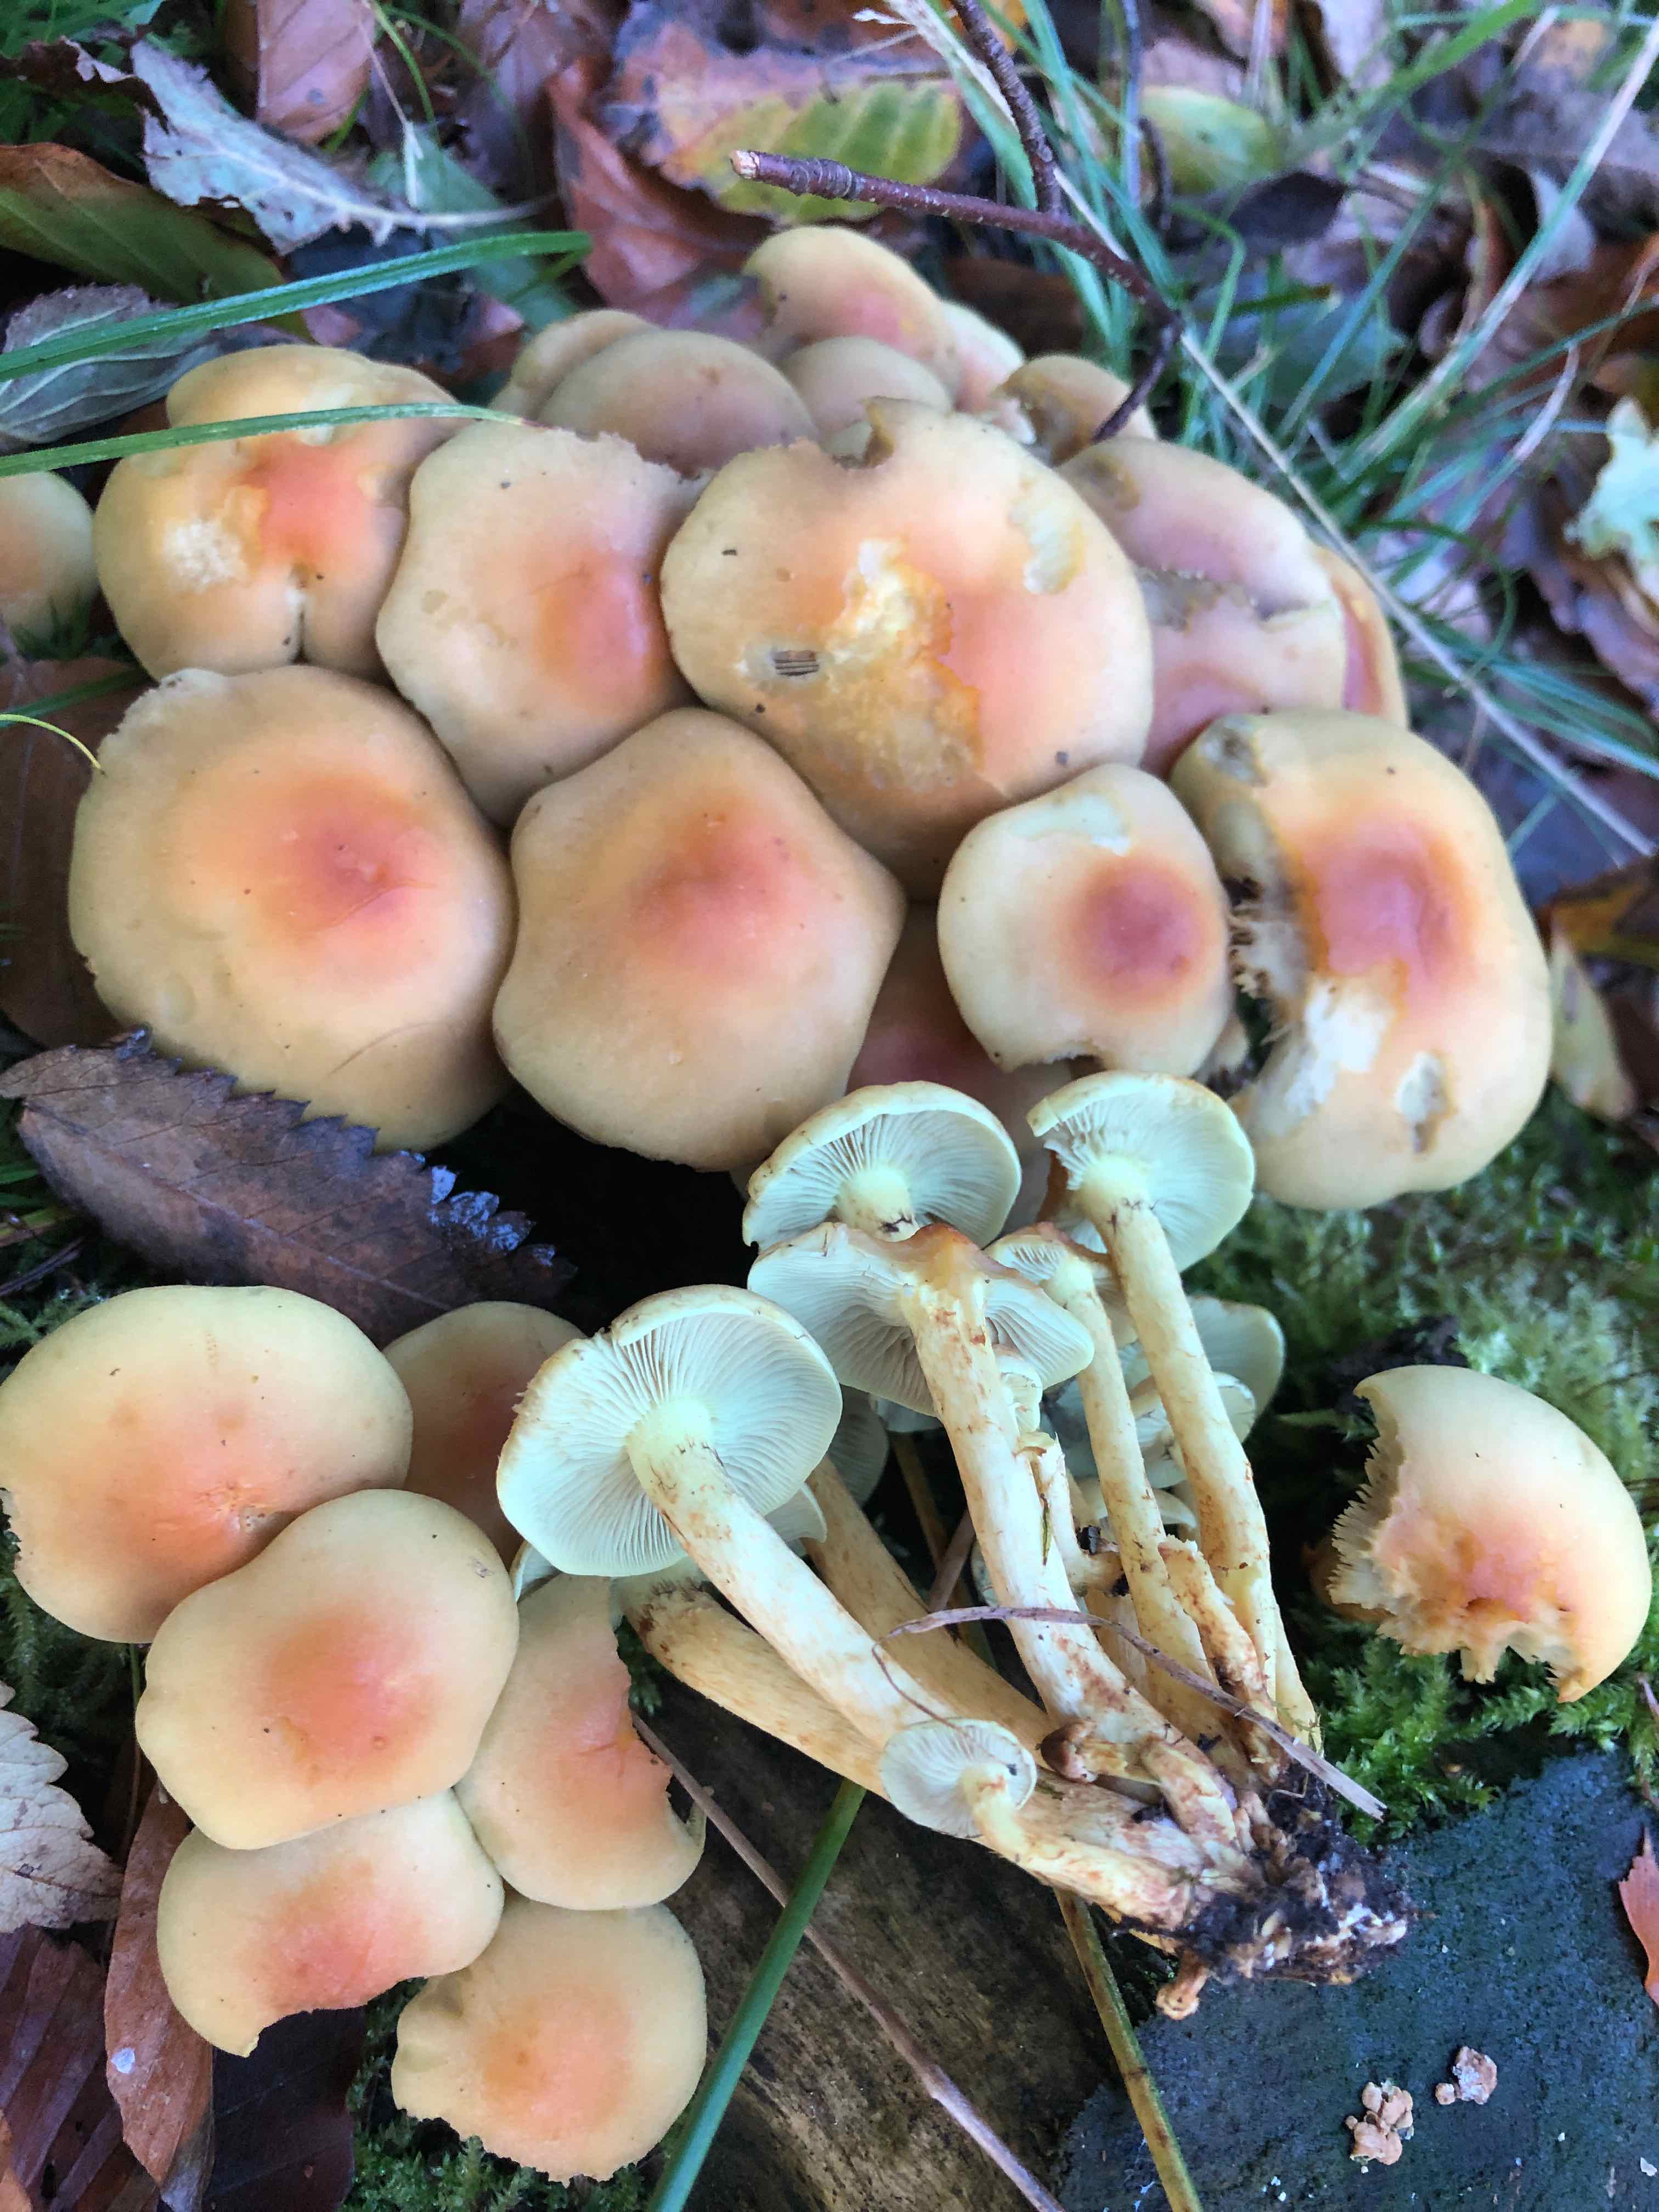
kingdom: Fungi
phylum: Basidiomycota
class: Agaricomycetes
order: Agaricales
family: Strophariaceae
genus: Hypholoma
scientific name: Hypholoma fasciculare
